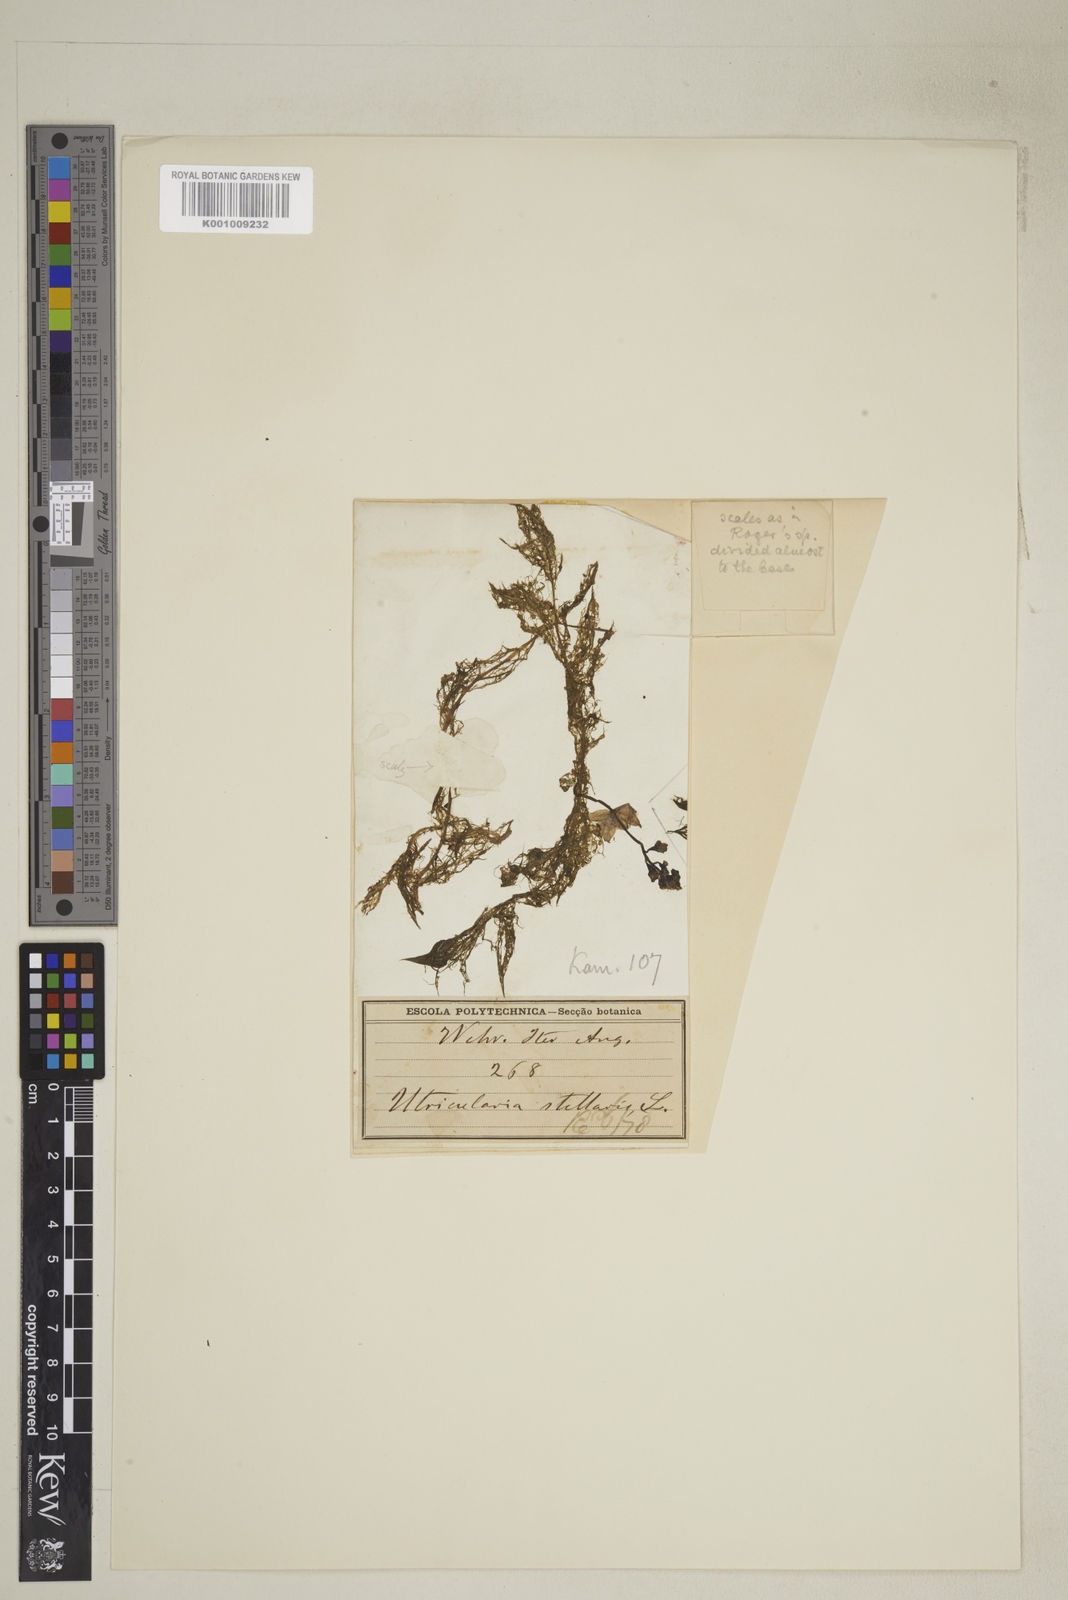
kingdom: Plantae
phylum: Tracheophyta
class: Magnoliopsida
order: Lamiales
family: Lentibulariaceae
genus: Utricularia
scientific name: Utricularia inflexa
